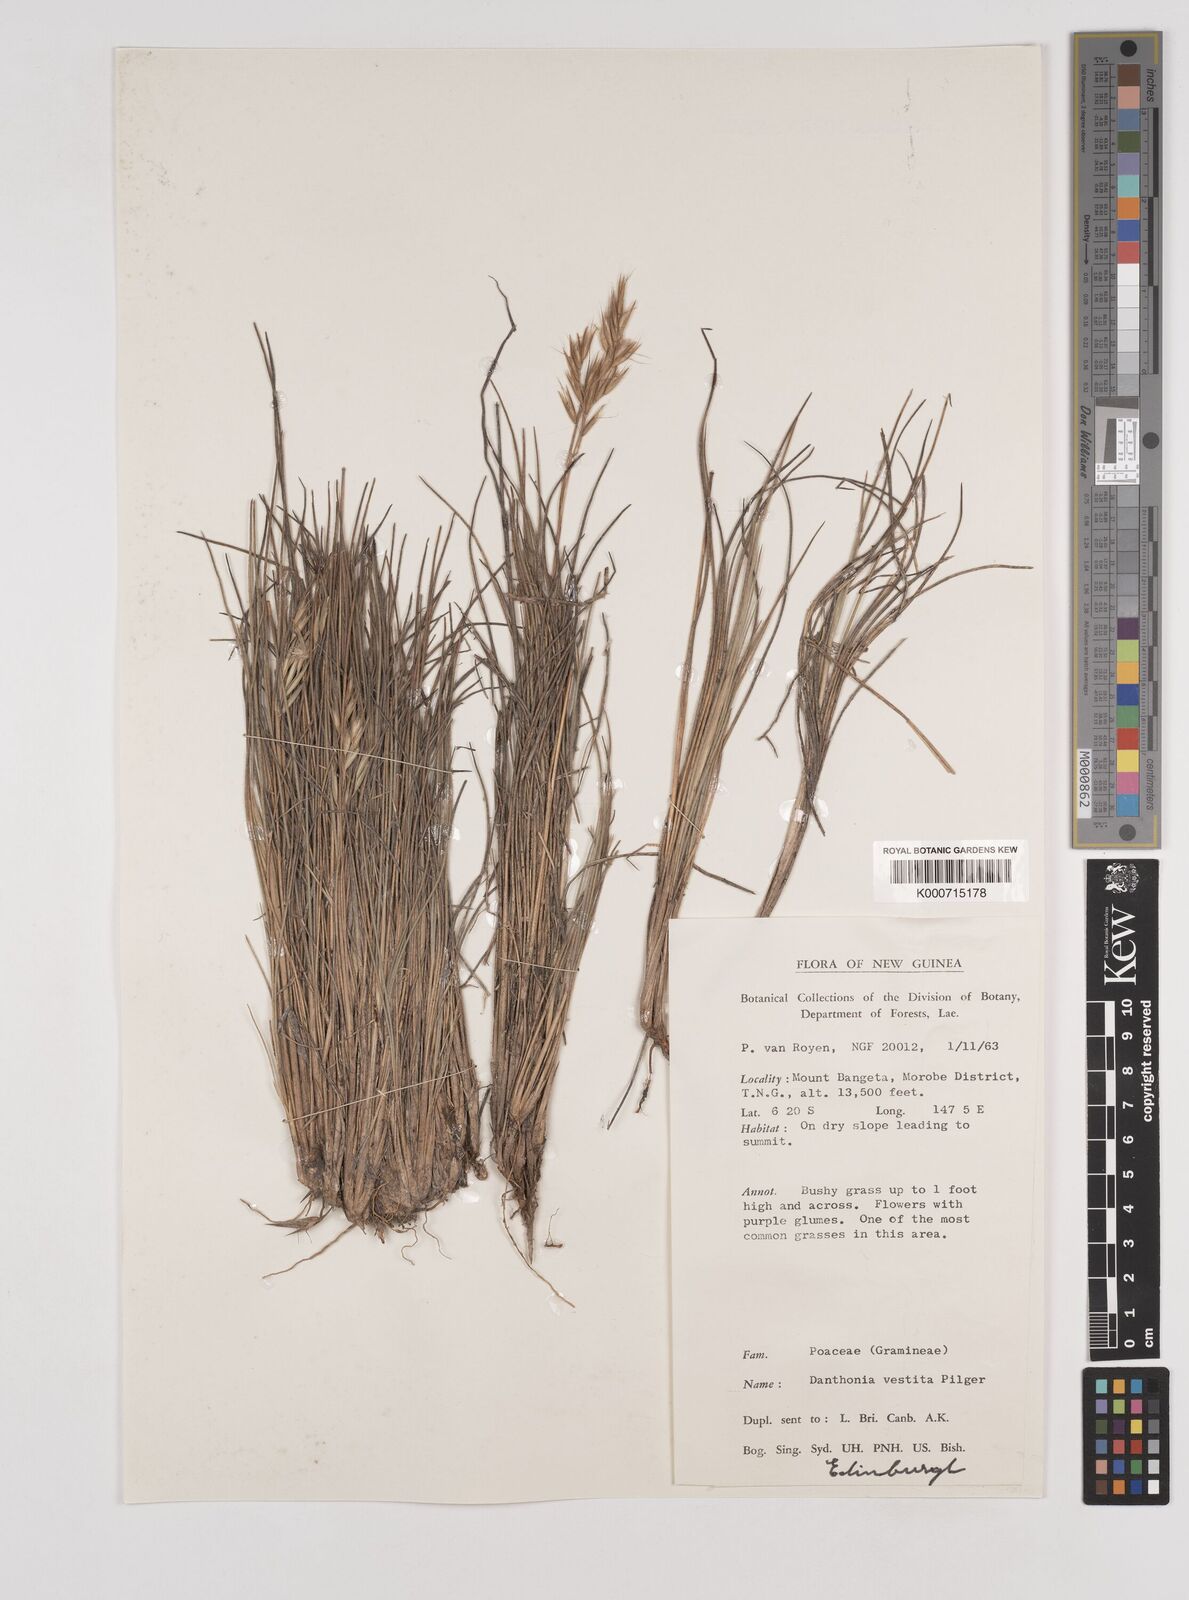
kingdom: Plantae
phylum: Tracheophyta
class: Liliopsida
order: Poales
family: Poaceae
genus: Rytidosperma
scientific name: Rytidosperma vestitum
